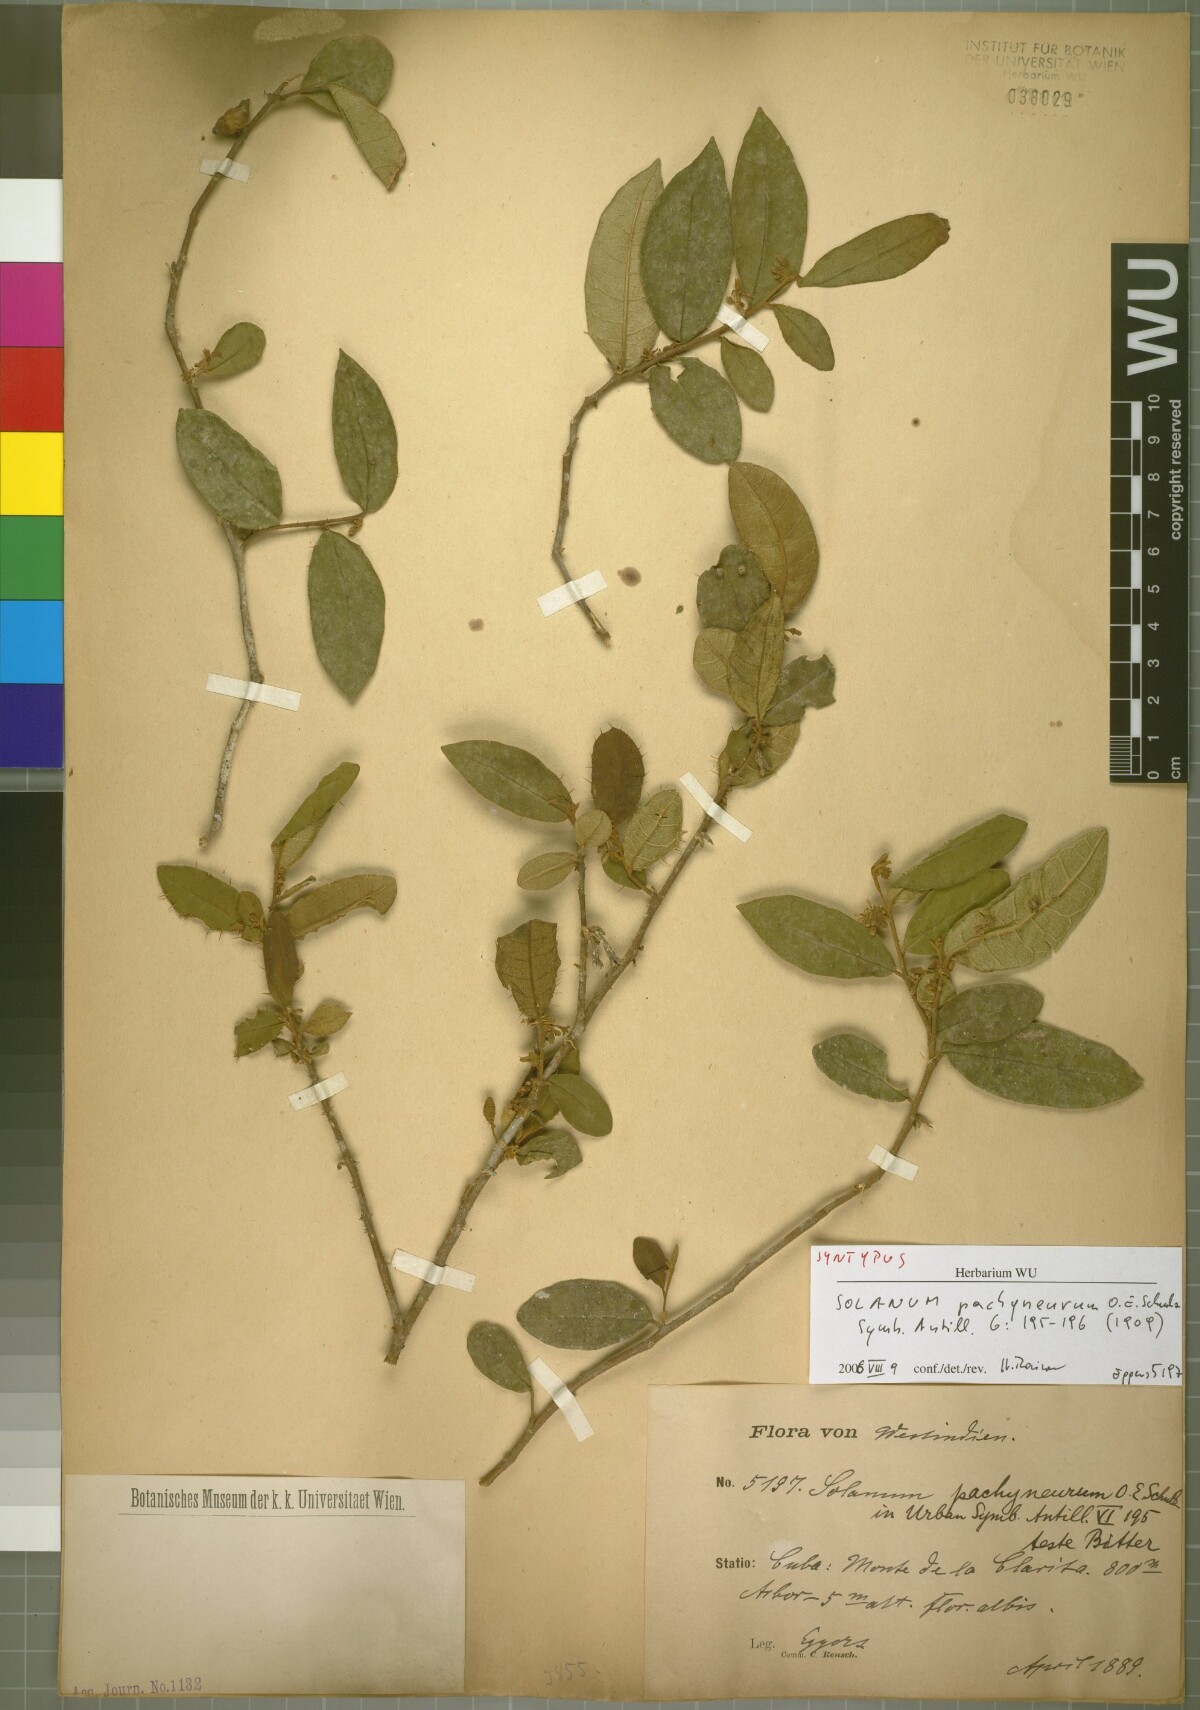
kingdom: Plantae
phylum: Tracheophyta
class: Magnoliopsida
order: Solanales
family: Solanaceae
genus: Solanum
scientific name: Solanum pachyneurum
